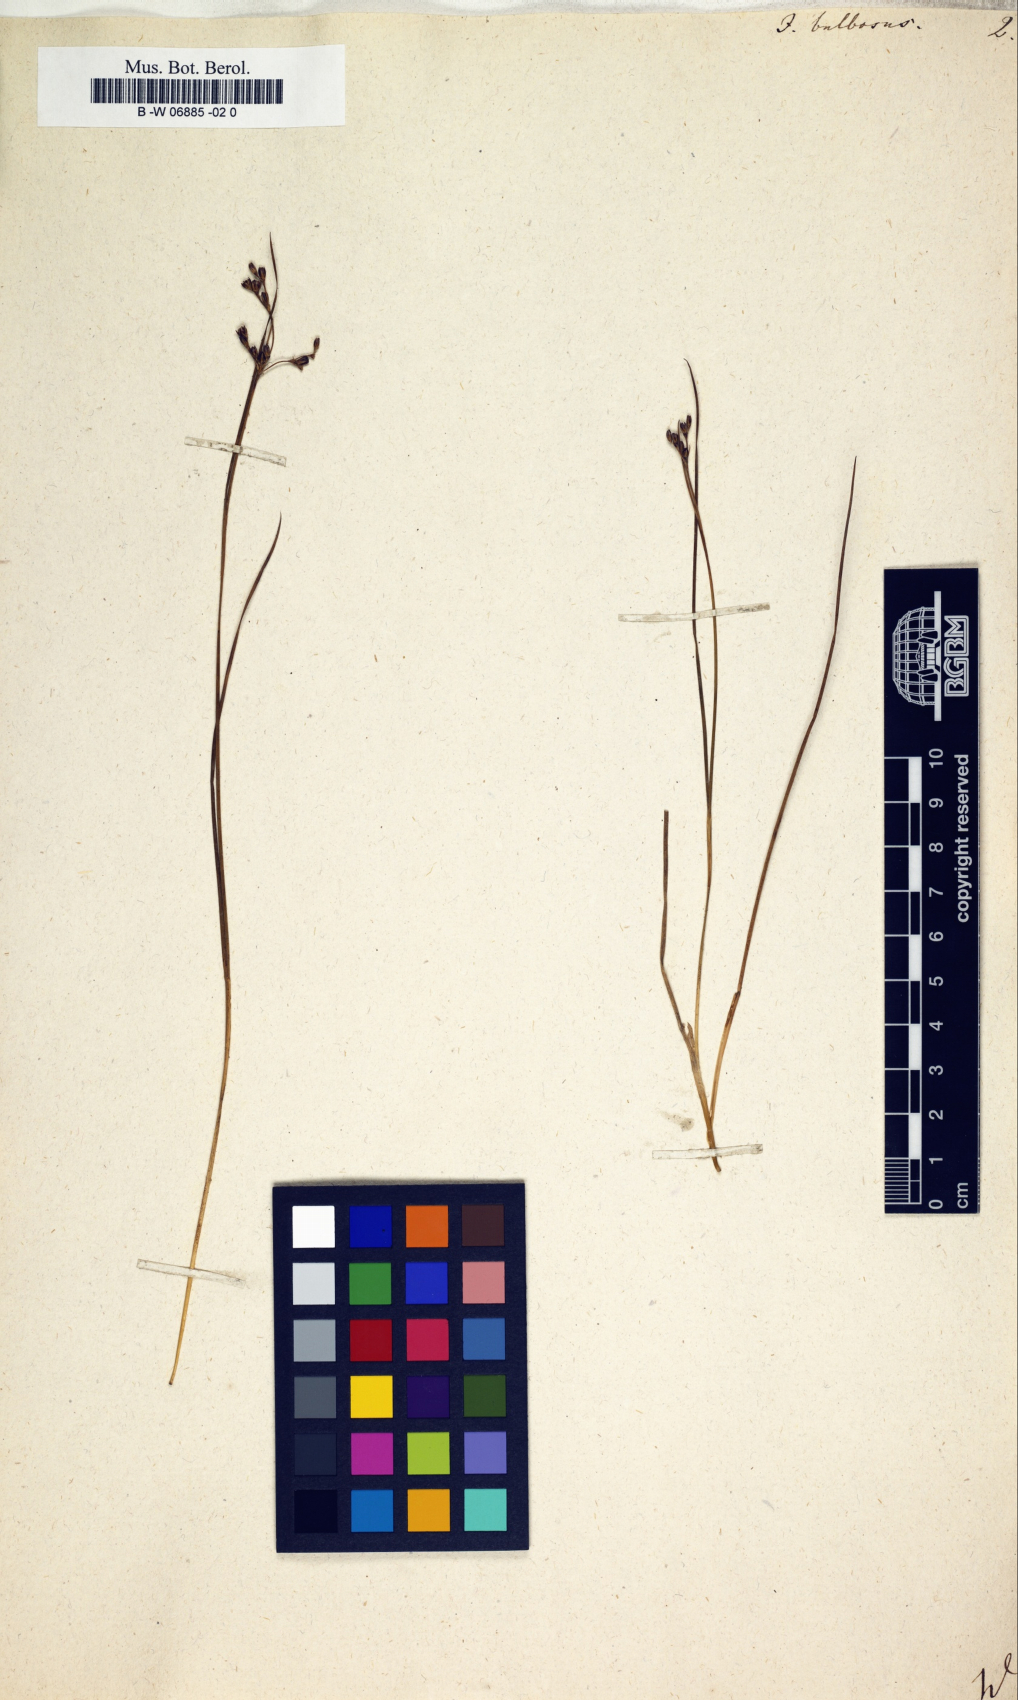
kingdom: Plantae
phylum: Tracheophyta
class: Liliopsida
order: Poales
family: Juncaceae
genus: Juncus
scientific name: Juncus bulbosus
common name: Bulbous rush
